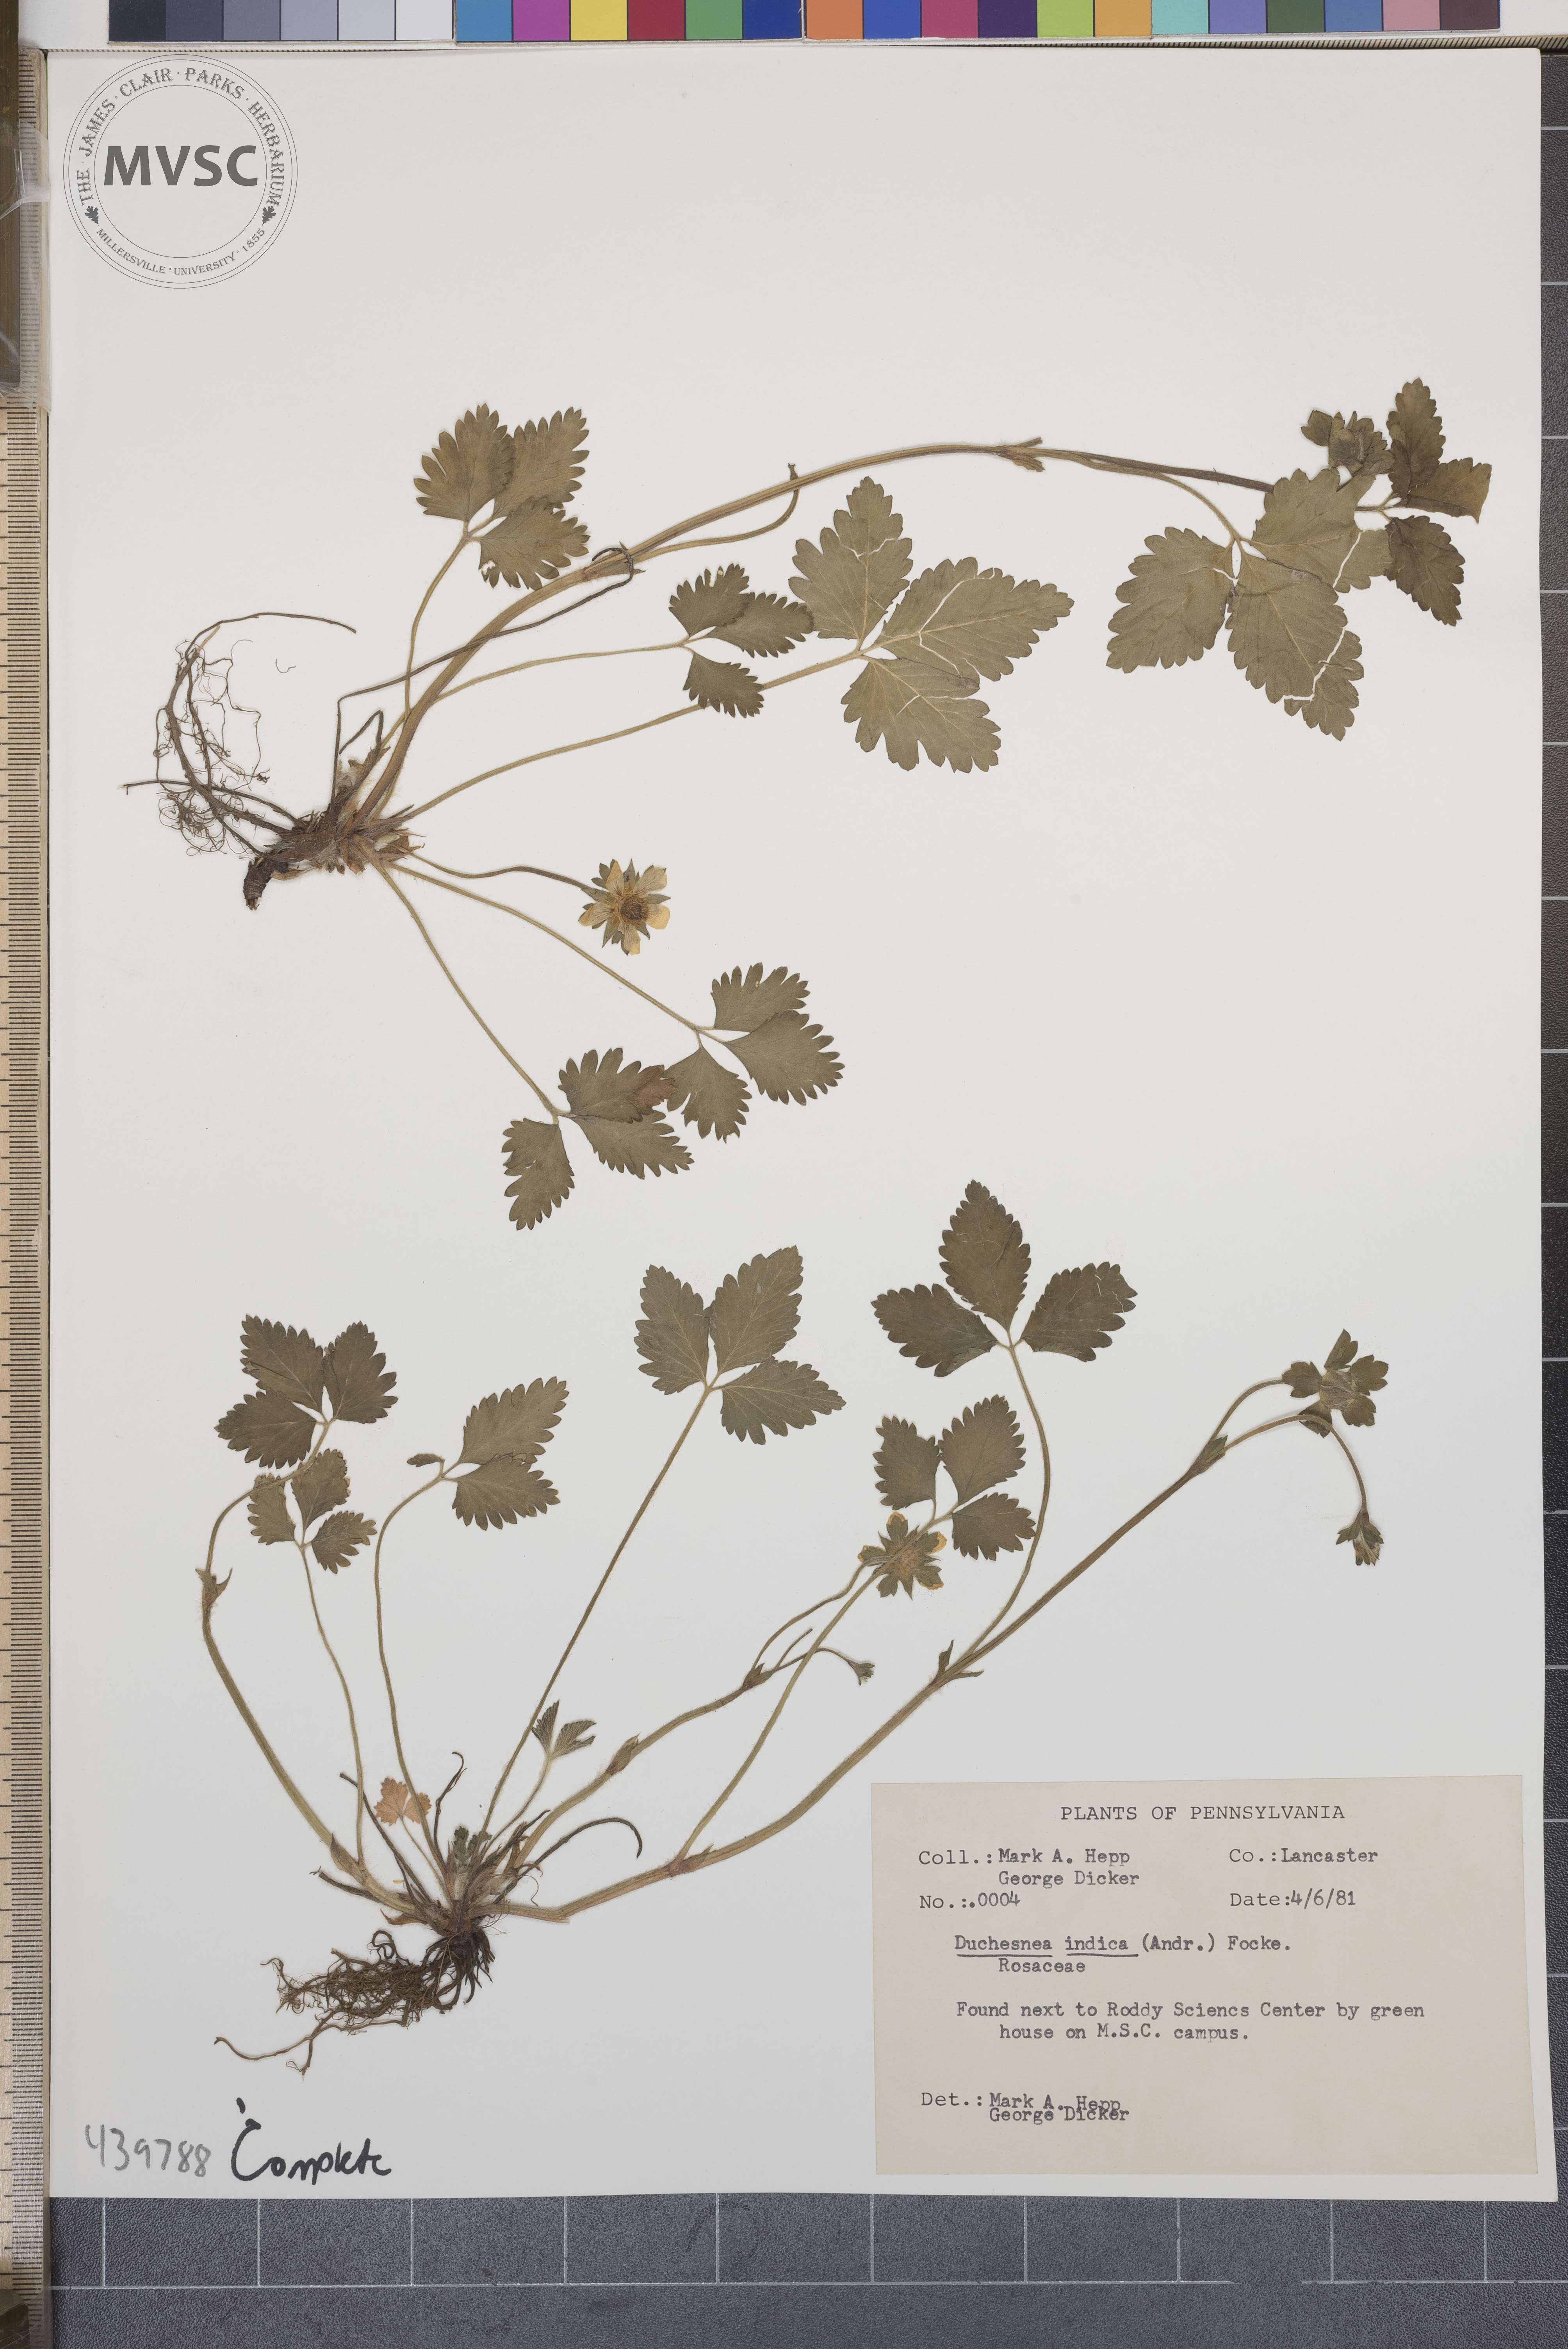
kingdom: Plantae
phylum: Tracheophyta
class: Magnoliopsida
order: Rosales
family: Rosaceae
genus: Potentilla
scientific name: Potentilla indica
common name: Yellow-flowered strawberry
